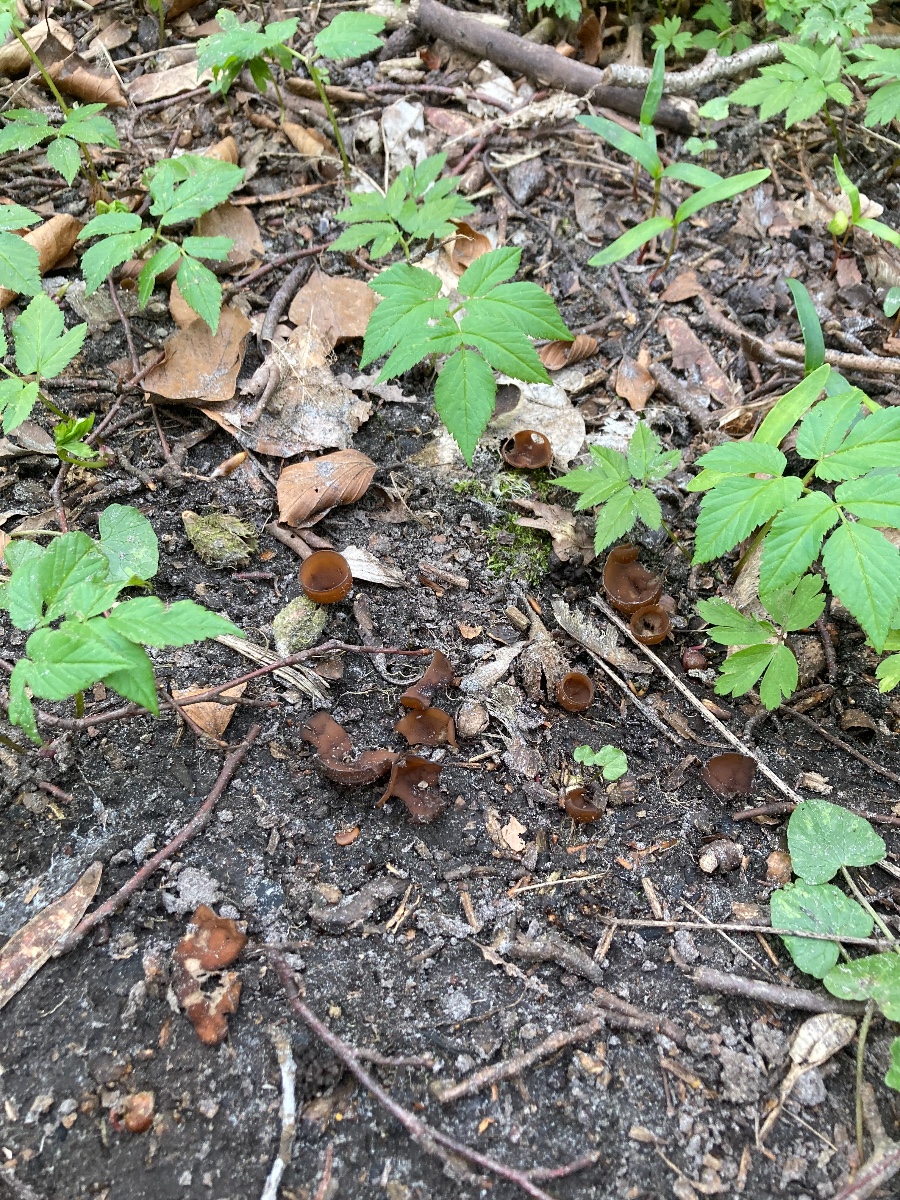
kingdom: Fungi
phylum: Ascomycota
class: Leotiomycetes
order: Helotiales
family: Sclerotiniaceae
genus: Dumontinia
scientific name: Dumontinia tuberosa
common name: anemone-knoldskive
